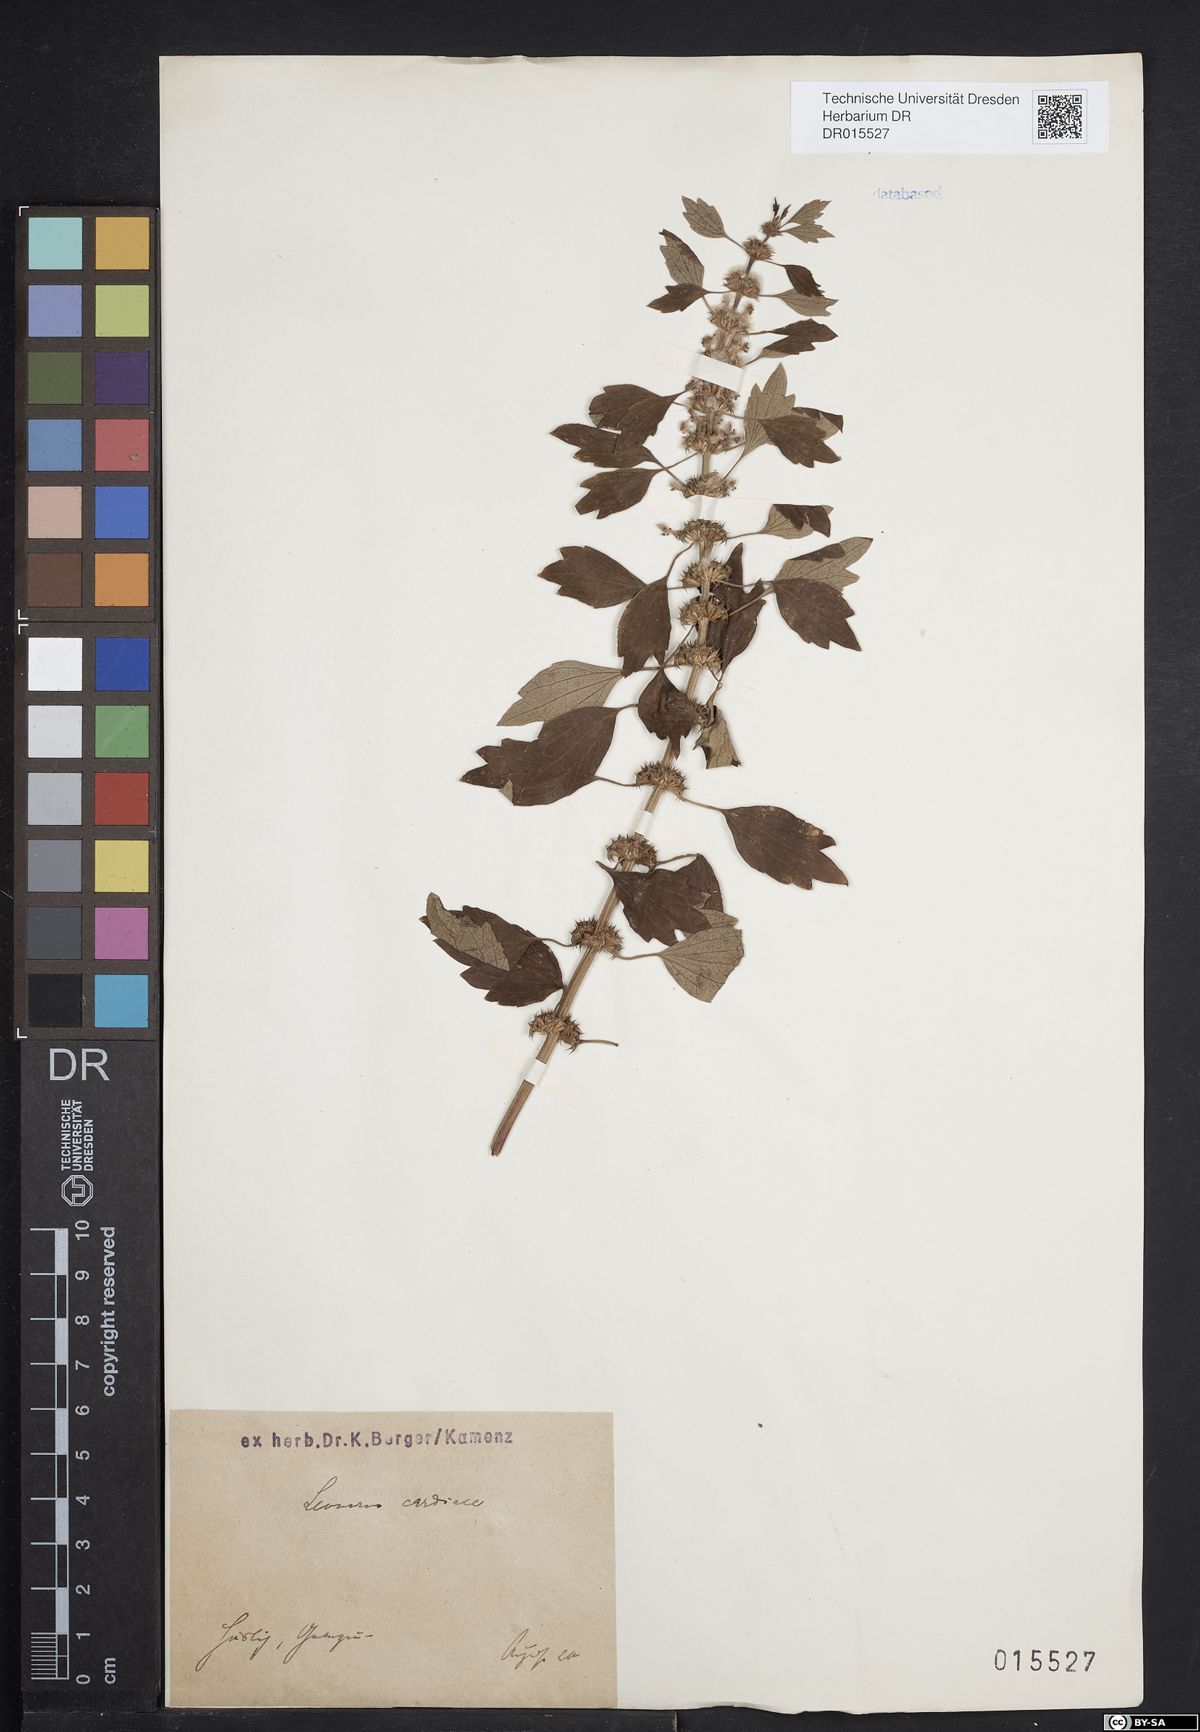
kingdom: Plantae
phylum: Tracheophyta
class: Magnoliopsida
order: Lamiales
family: Lamiaceae
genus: Leonurus
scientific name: Leonurus cardiaca
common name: Motherwort
